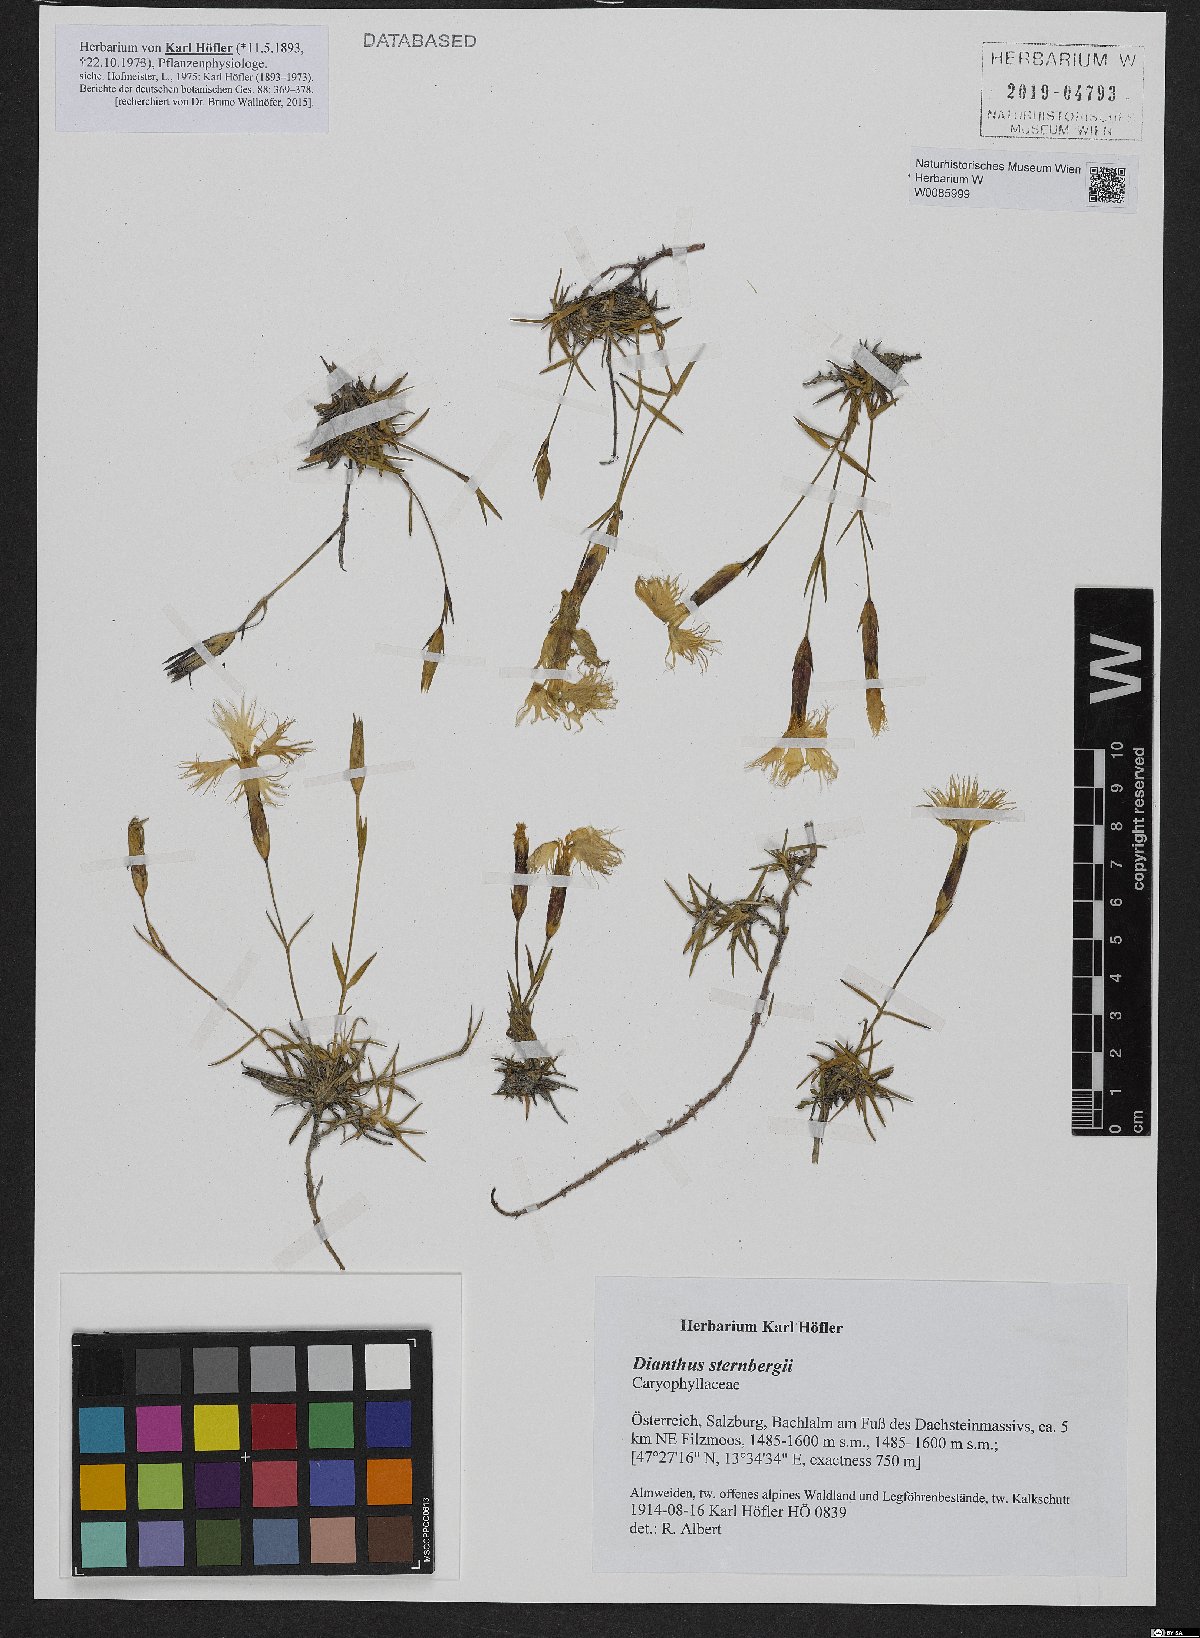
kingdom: Plantae
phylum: Tracheophyta
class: Magnoliopsida
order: Caryophyllales
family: Caryophyllaceae
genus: Dianthus
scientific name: Dianthus sternbergii
